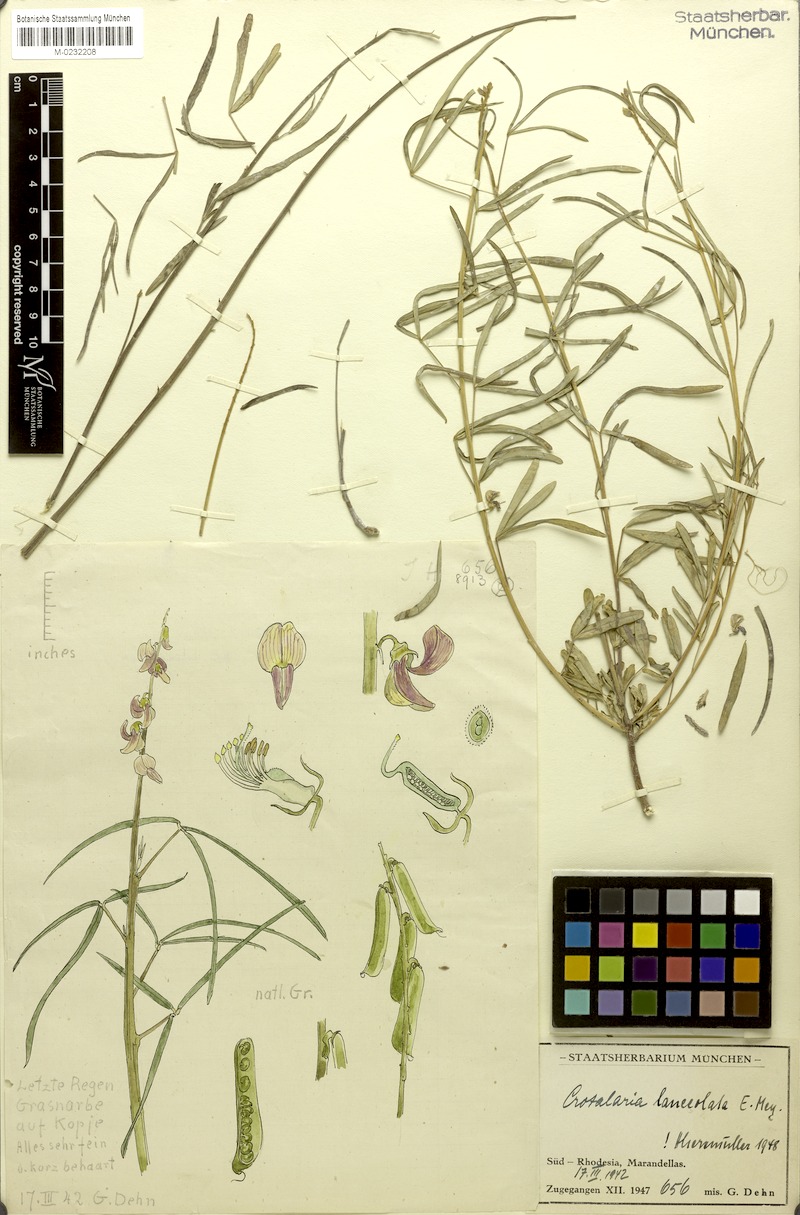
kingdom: Plantae
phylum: Tracheophyta
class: Magnoliopsida
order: Fabales
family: Fabaceae
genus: Crotalaria
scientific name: Crotalaria lanceolata
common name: Lanceleaf rattlebox
